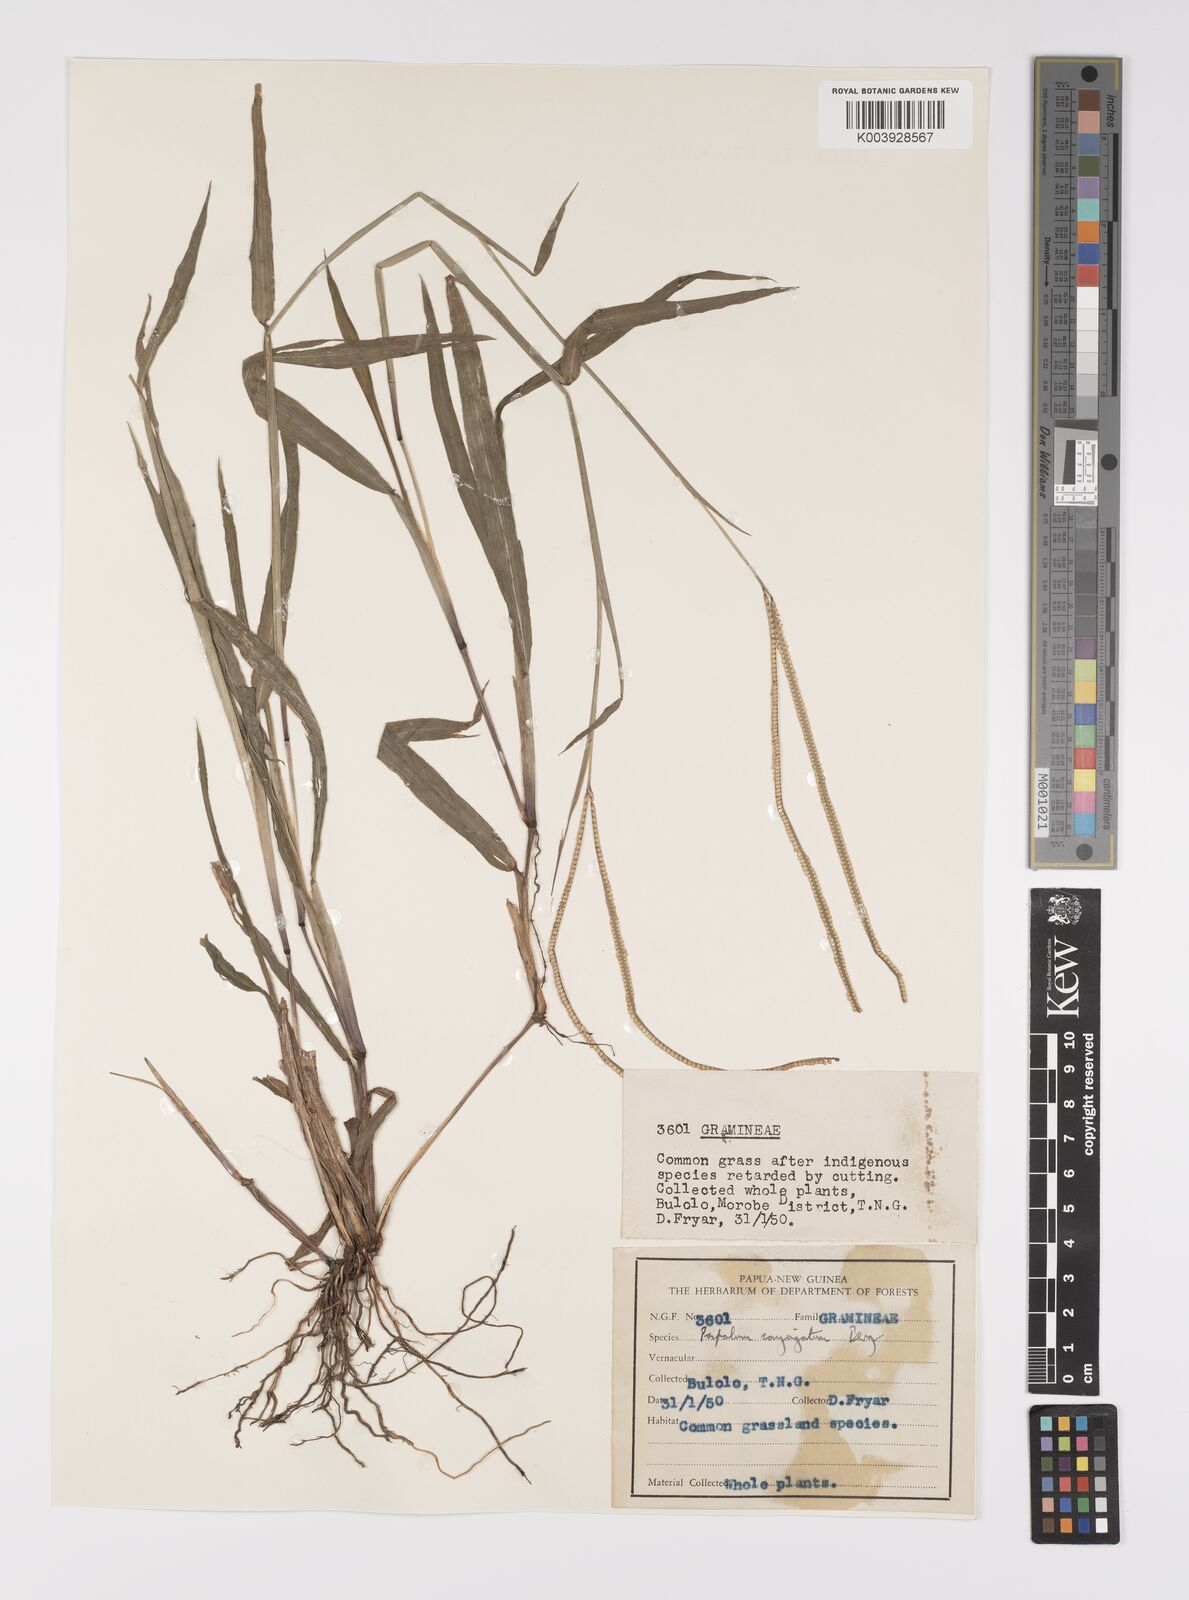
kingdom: Plantae
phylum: Tracheophyta
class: Liliopsida
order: Poales
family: Poaceae
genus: Paspalum
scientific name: Paspalum conjugatum
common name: Hilograss
